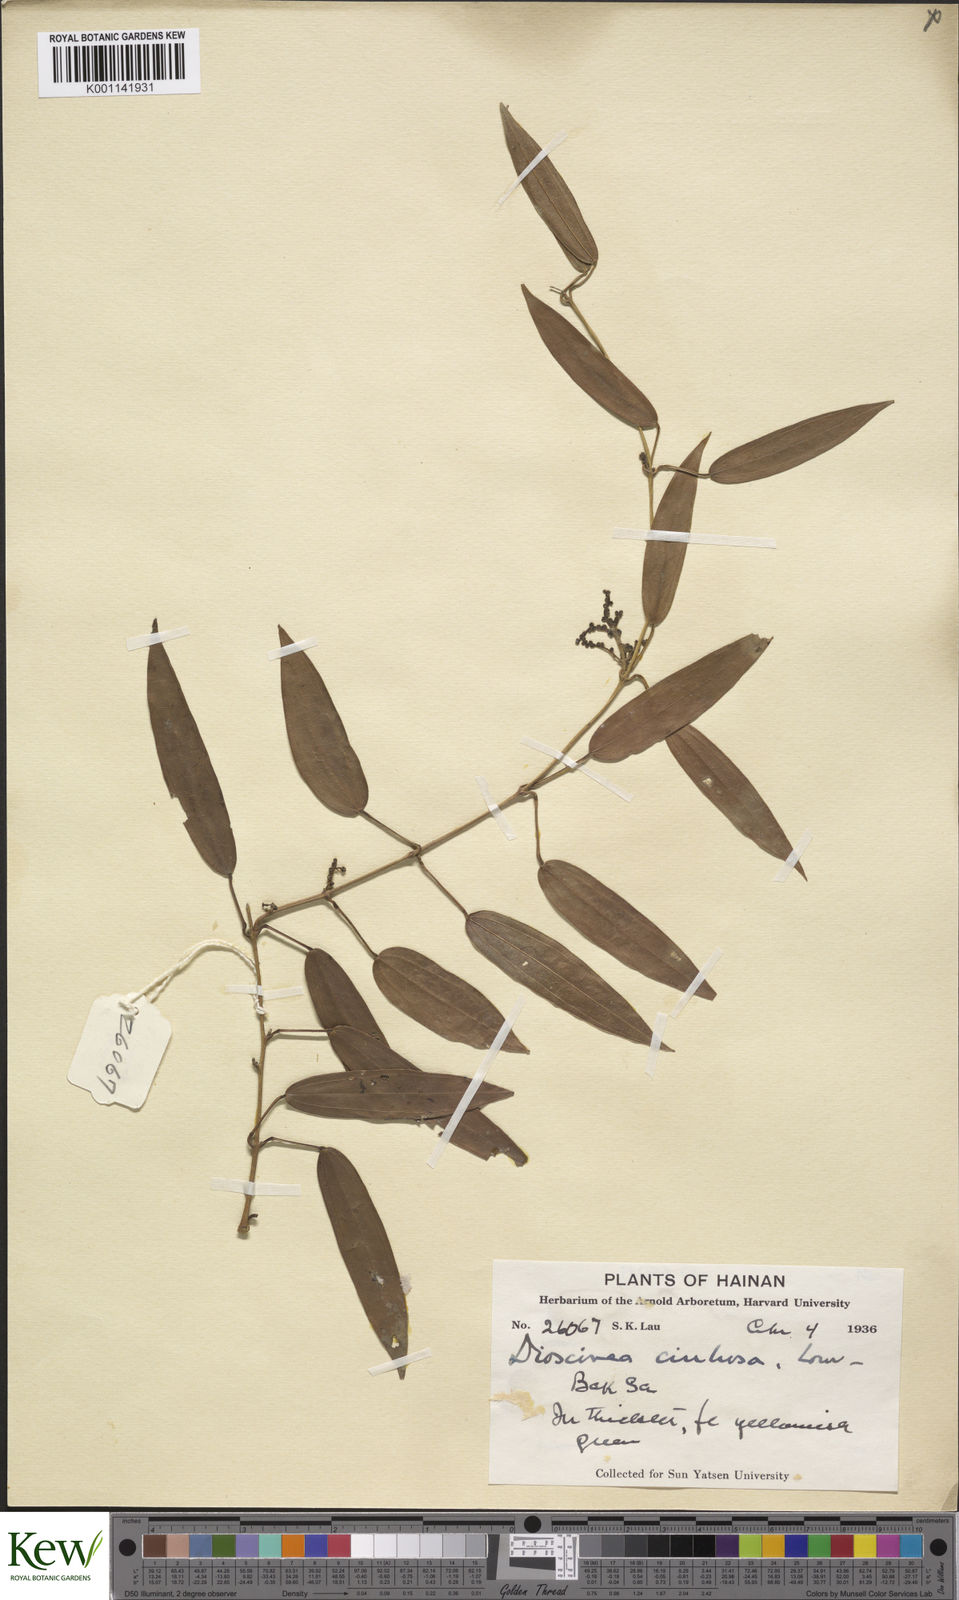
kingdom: Plantae
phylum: Tracheophyta
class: Liliopsida
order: Dioscoreales
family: Dioscoreaceae
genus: Dioscorea
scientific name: Dioscorea cirrhosa
